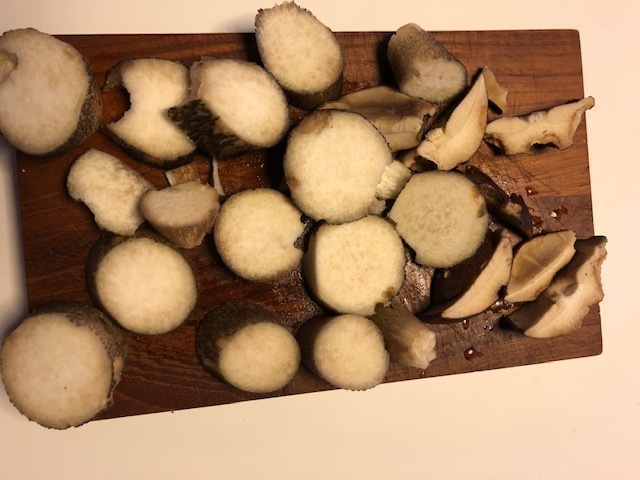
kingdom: Fungi
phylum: Basidiomycota
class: Agaricomycetes
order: Boletales
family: Boletaceae
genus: Leccinum
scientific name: Leccinum scabrum
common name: brun skælrørhat
